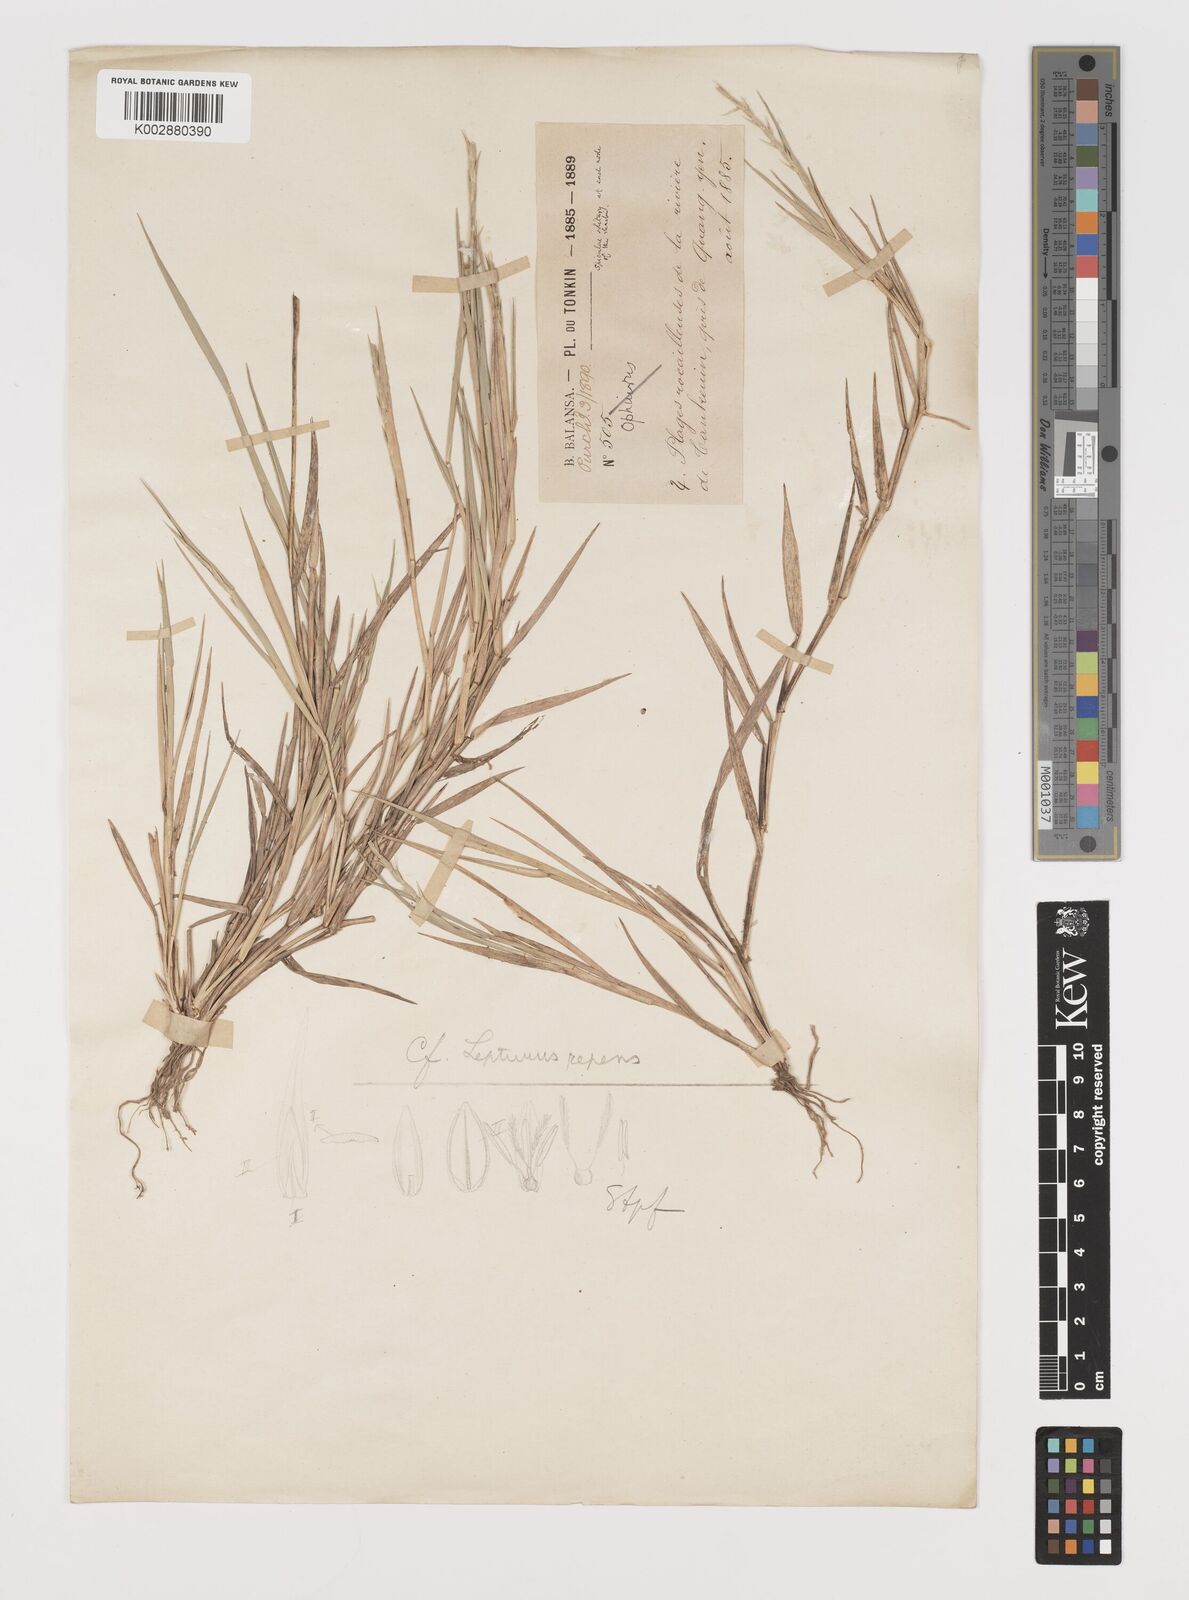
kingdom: Plantae
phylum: Tracheophyta
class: Liliopsida
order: Poales
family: Poaceae
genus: Lepturus
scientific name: Lepturus repens
